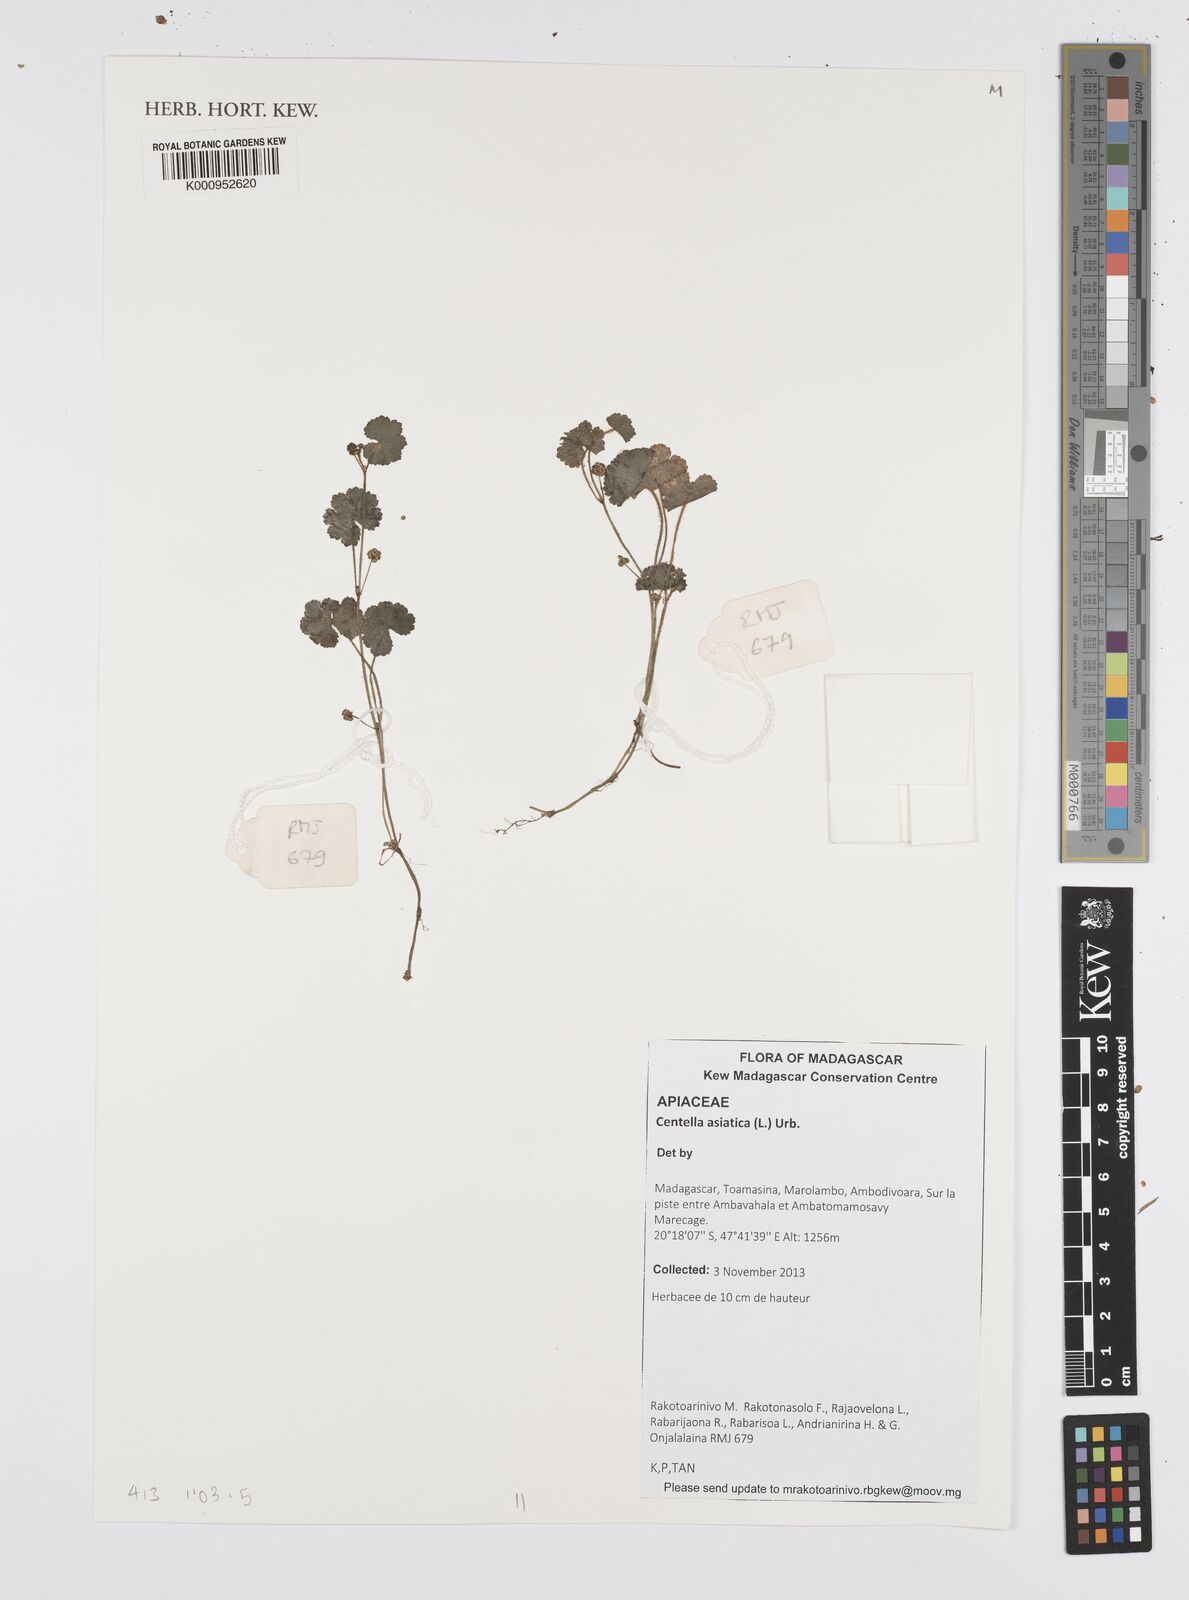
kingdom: Plantae
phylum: Tracheophyta
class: Magnoliopsida
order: Apiales
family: Apiaceae
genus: Centella
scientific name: Centella asiatica
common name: Spadeleaf
